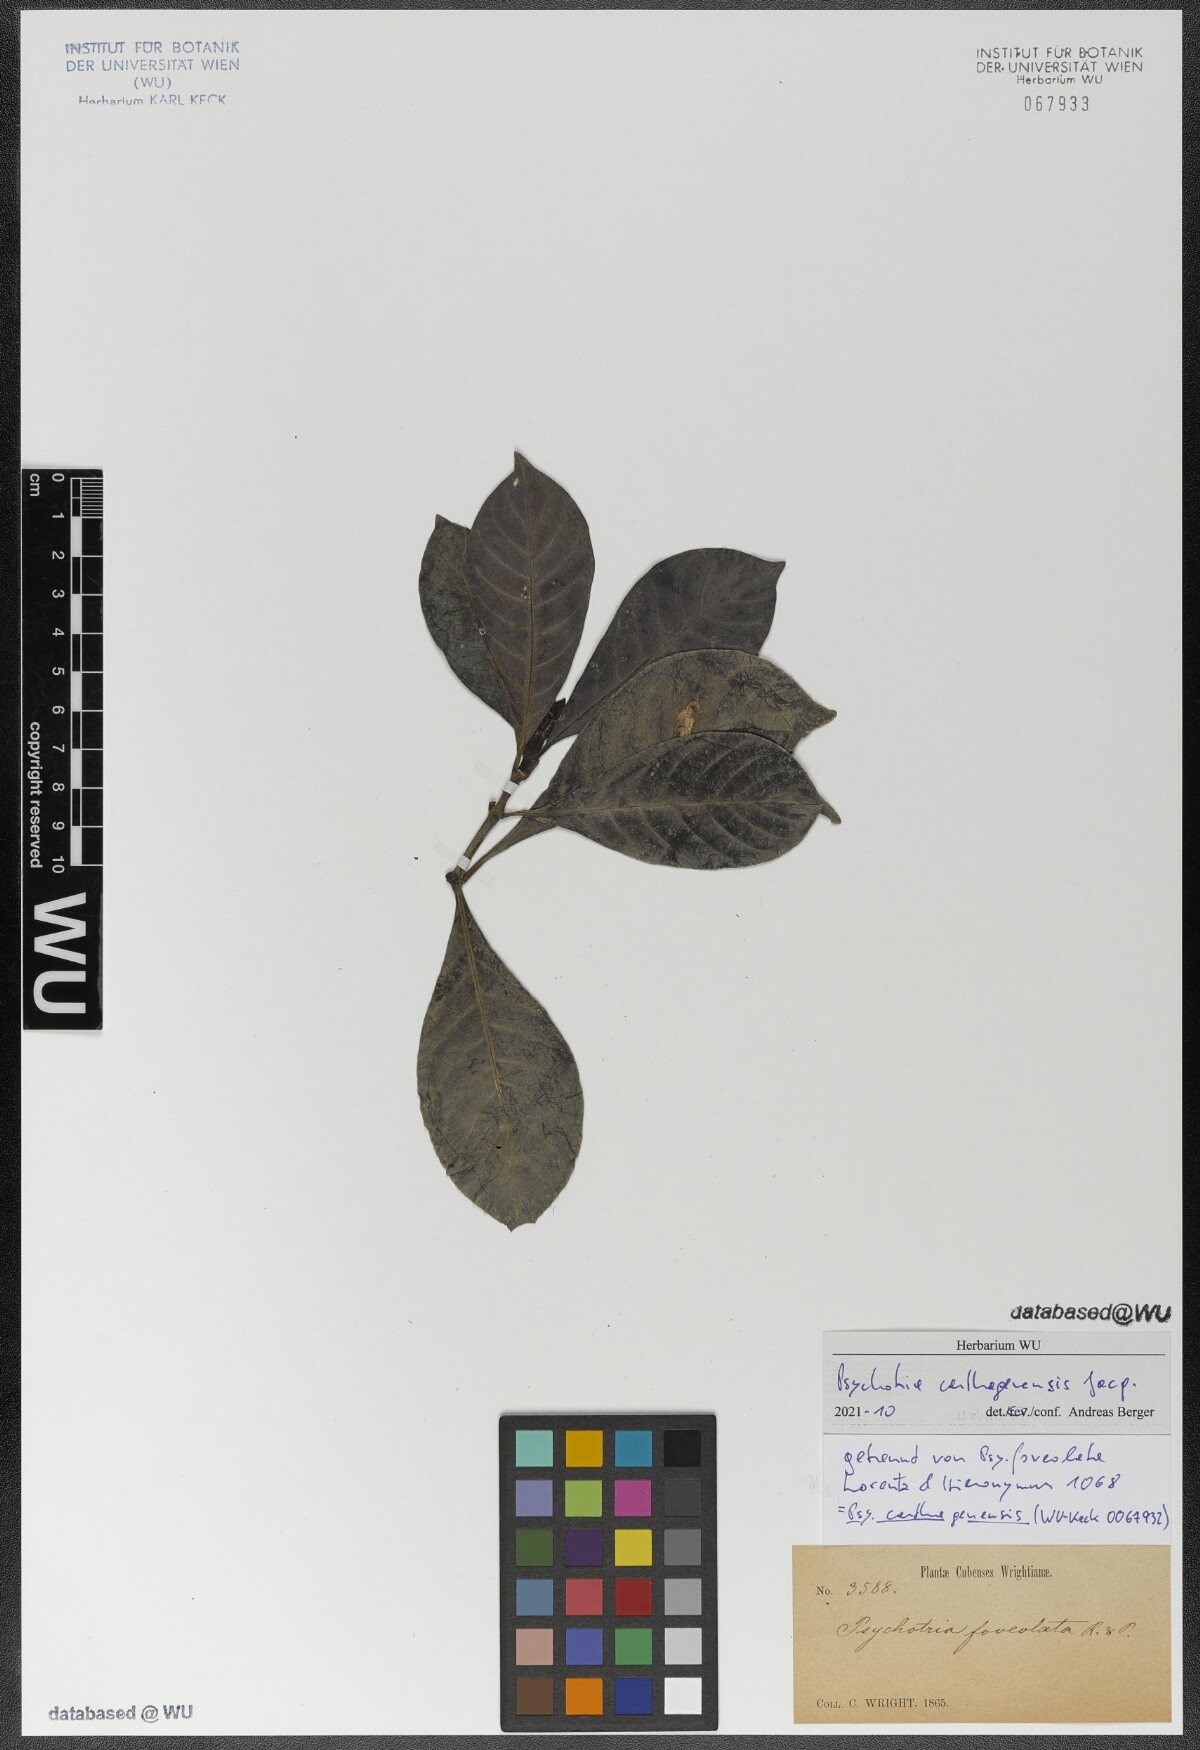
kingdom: Plantae
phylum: Tracheophyta
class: Magnoliopsida
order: Gentianales
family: Rubiaceae
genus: Psychotria
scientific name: Psychotria carthagenensis
